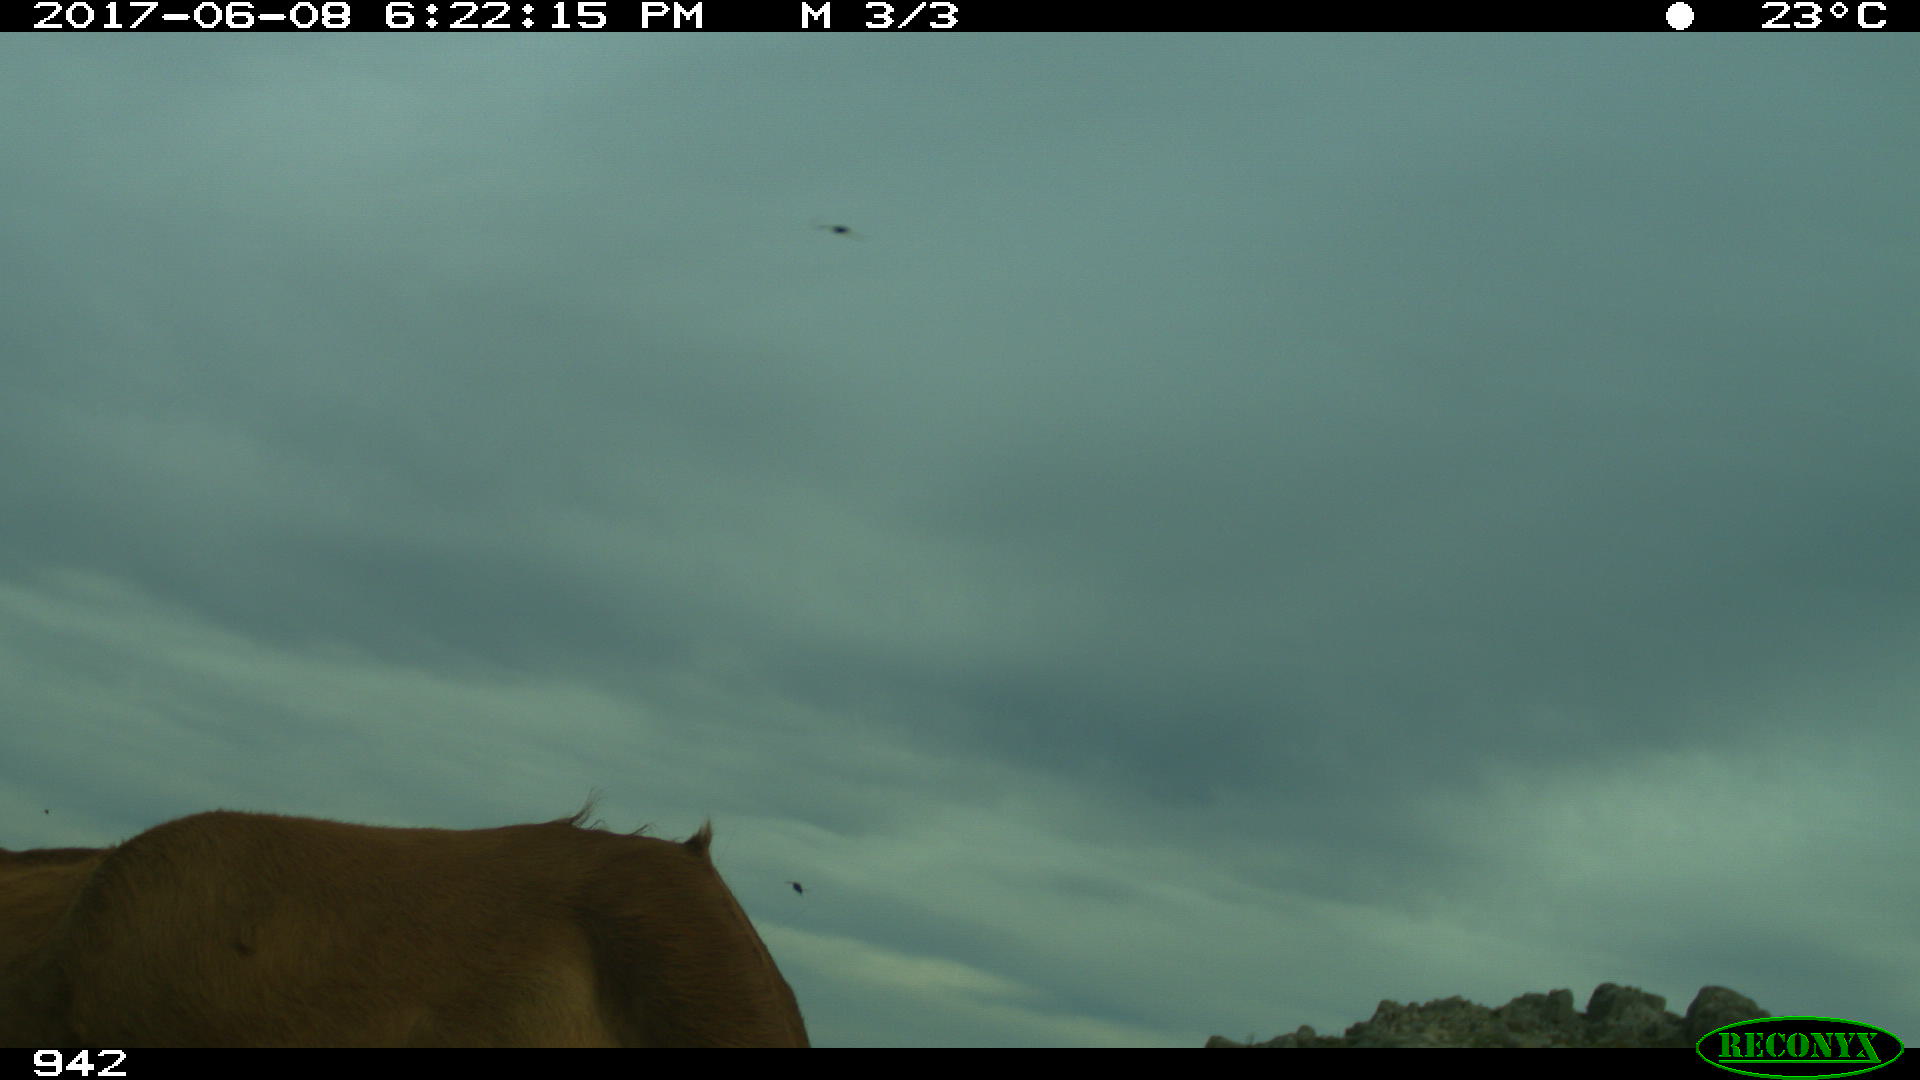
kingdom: Animalia
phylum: Chordata
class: Mammalia
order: Artiodactyla
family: Bovidae
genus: Bos
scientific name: Bos taurus
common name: Domesticated cattle
